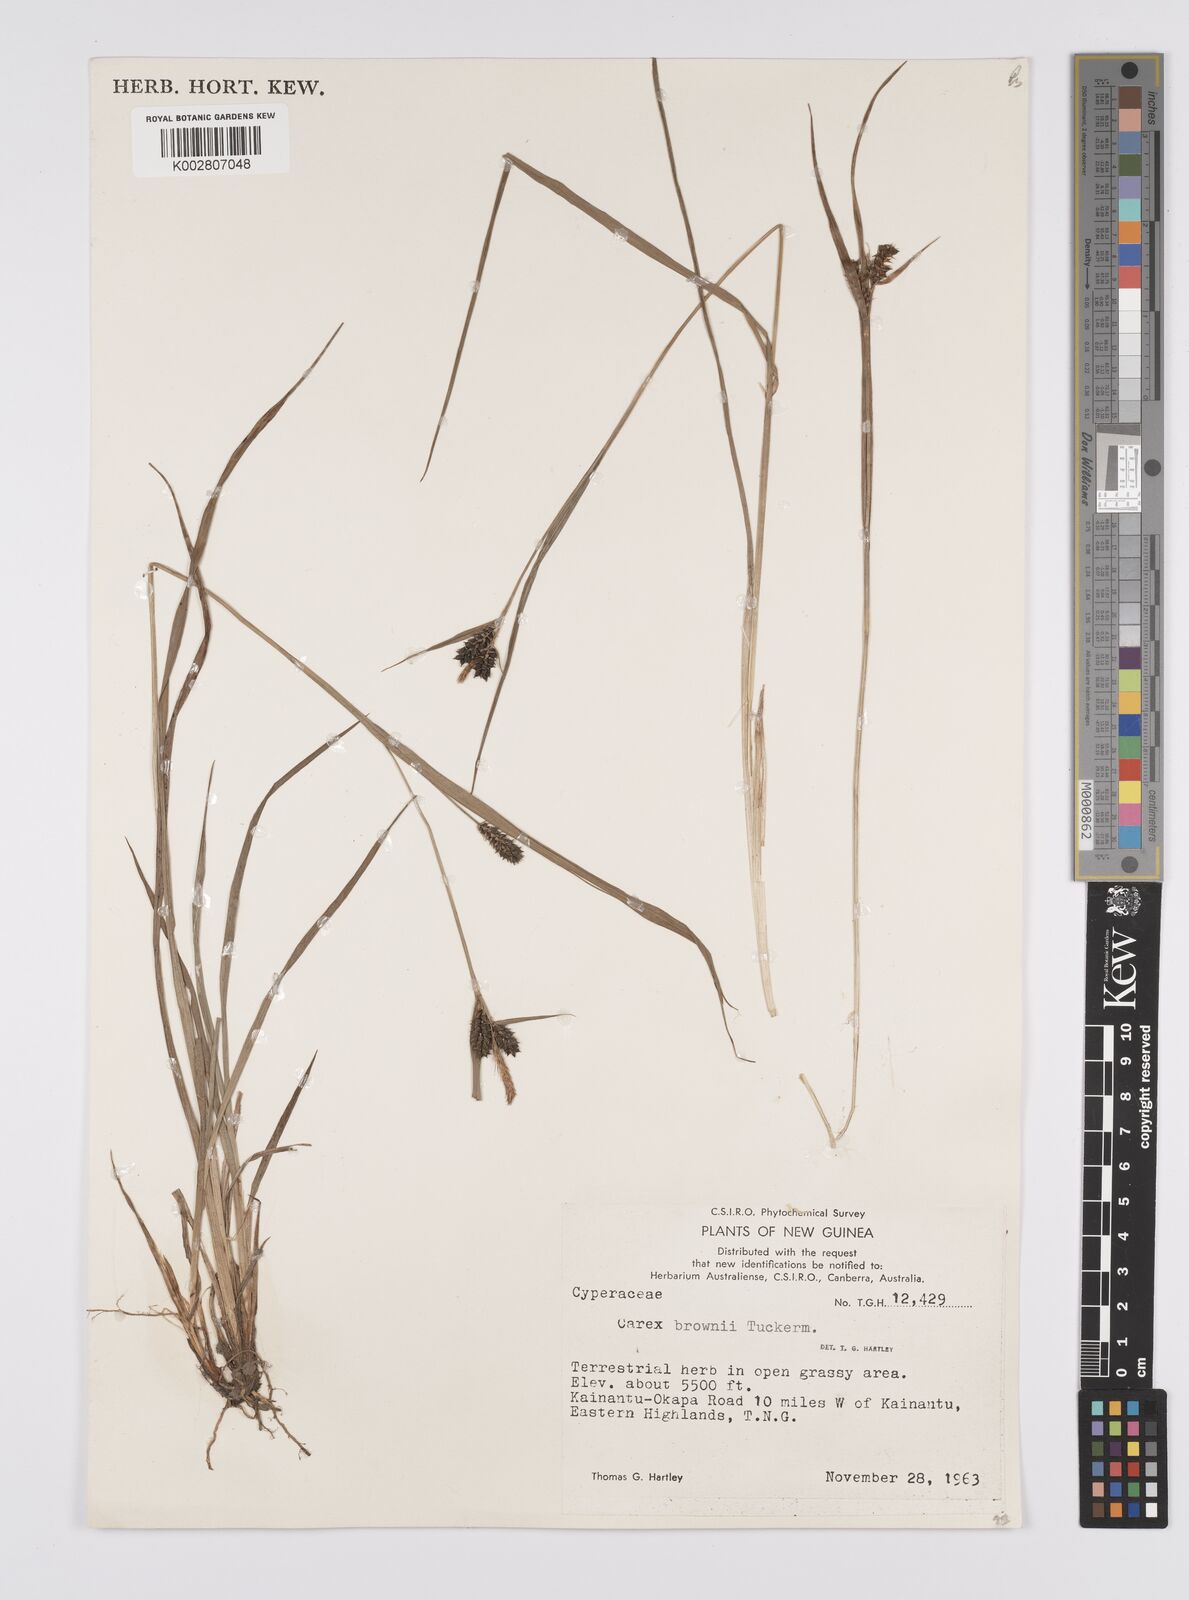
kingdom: Plantae
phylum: Tracheophyta
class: Liliopsida
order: Poales
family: Cyperaceae
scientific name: Cyperaceae
